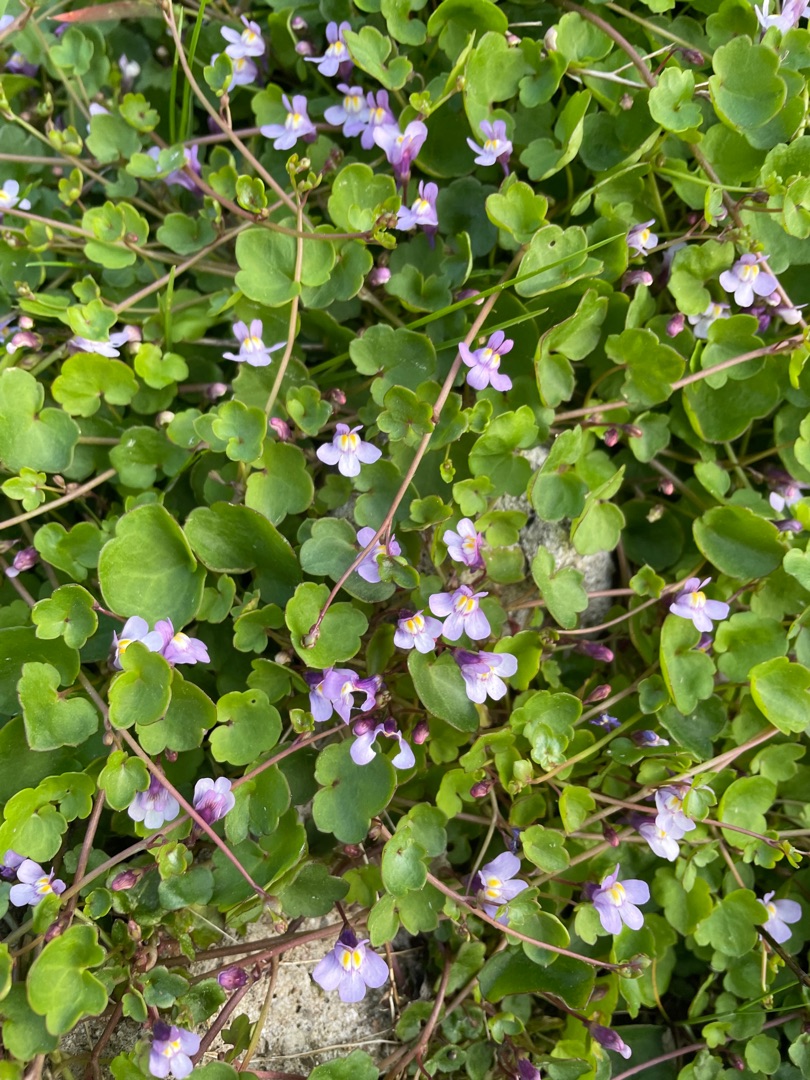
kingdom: Plantae
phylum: Tracheophyta
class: Magnoliopsida
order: Lamiales
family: Plantaginaceae
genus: Cymbalaria
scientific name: Cymbalaria muralis
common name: Vedbend-torskemund
